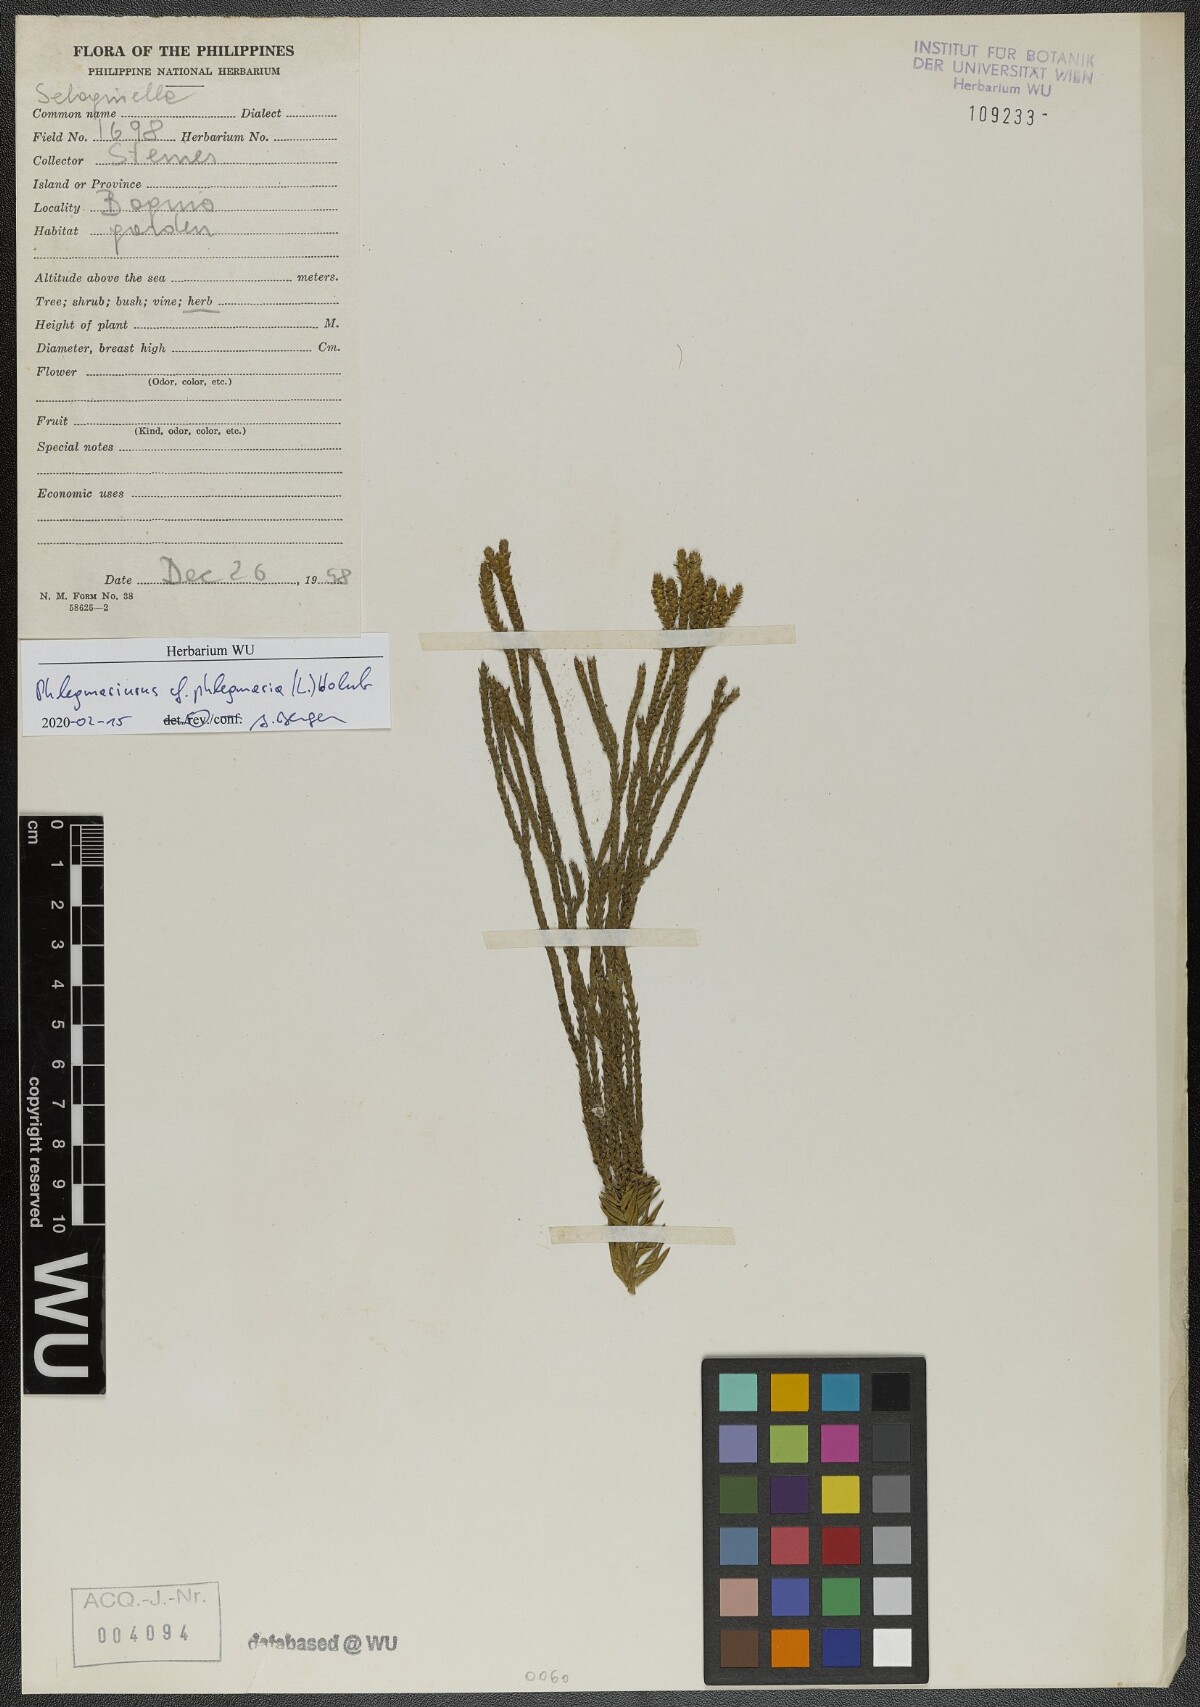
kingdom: Plantae
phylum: Tracheophyta
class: Lycopodiopsida
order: Lycopodiales
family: Lycopodiaceae
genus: Phlegmariurus
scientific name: Phlegmariurus phlegmaria
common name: Coarse tassel-fern
